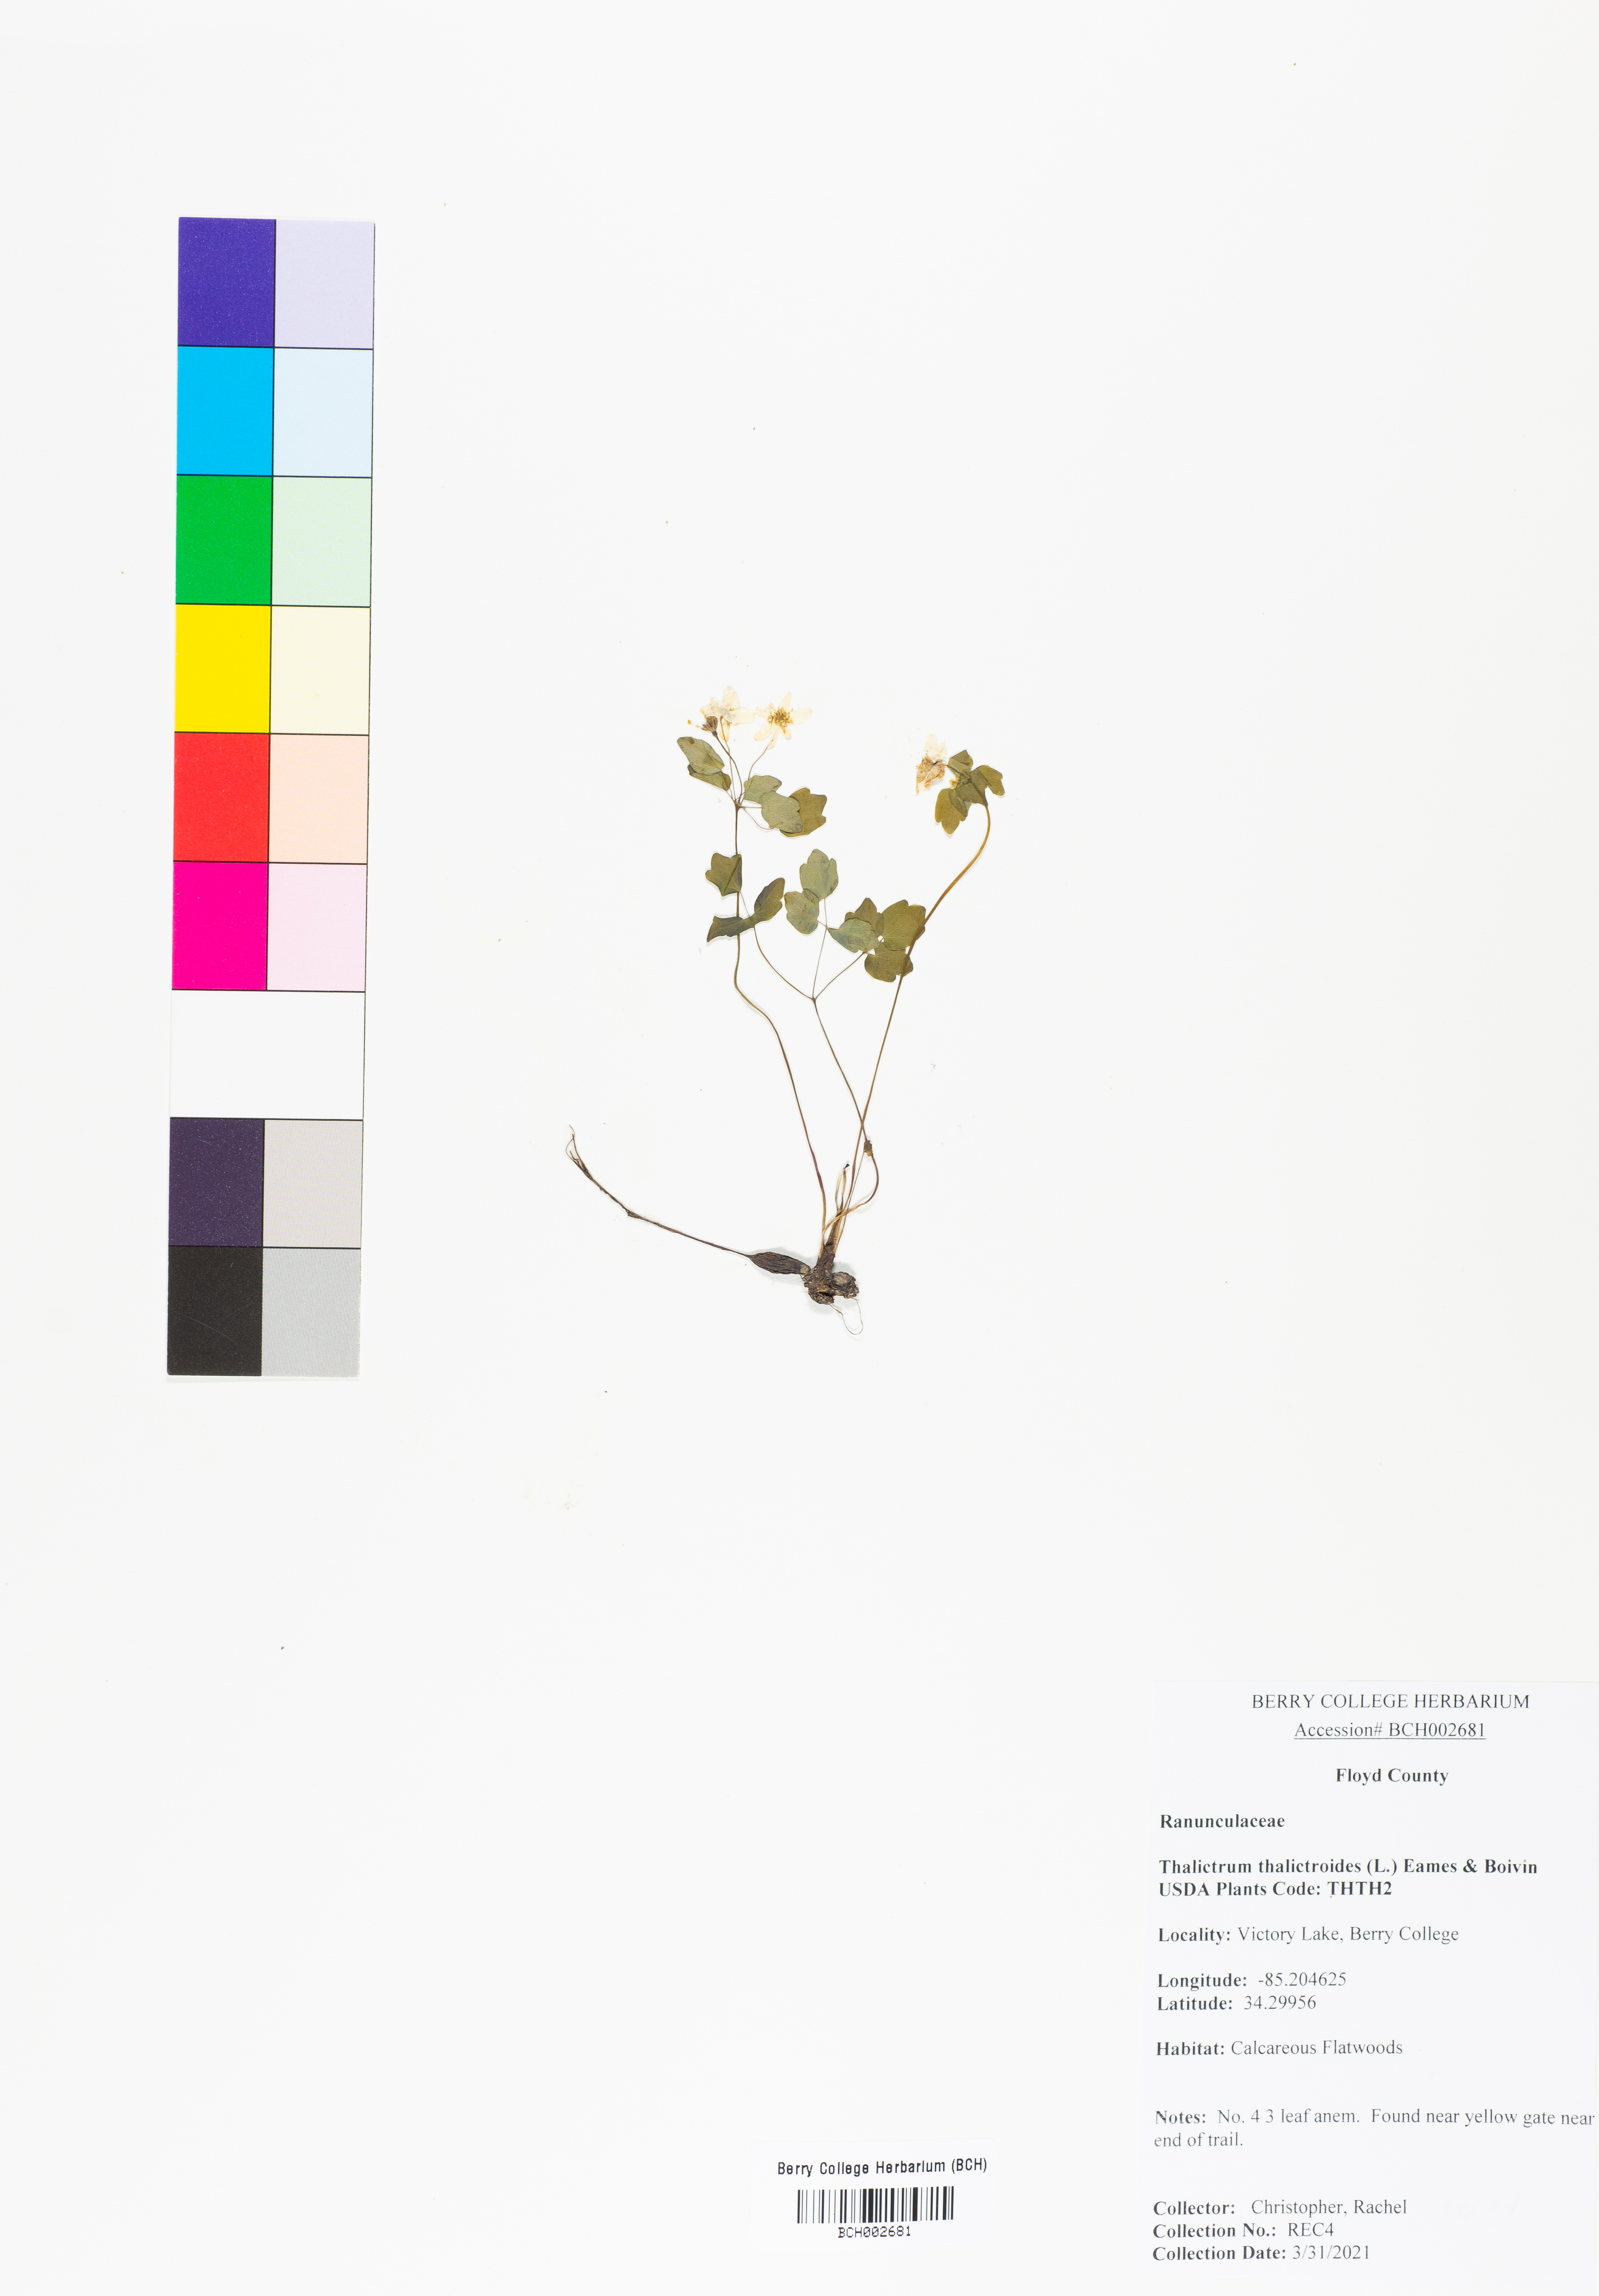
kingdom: Plantae
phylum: Tracheophyta
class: Magnoliopsida
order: Ranunculales
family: Ranunculaceae
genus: Thalictrum
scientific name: Thalictrum thalictroides
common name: Rue-anemone
